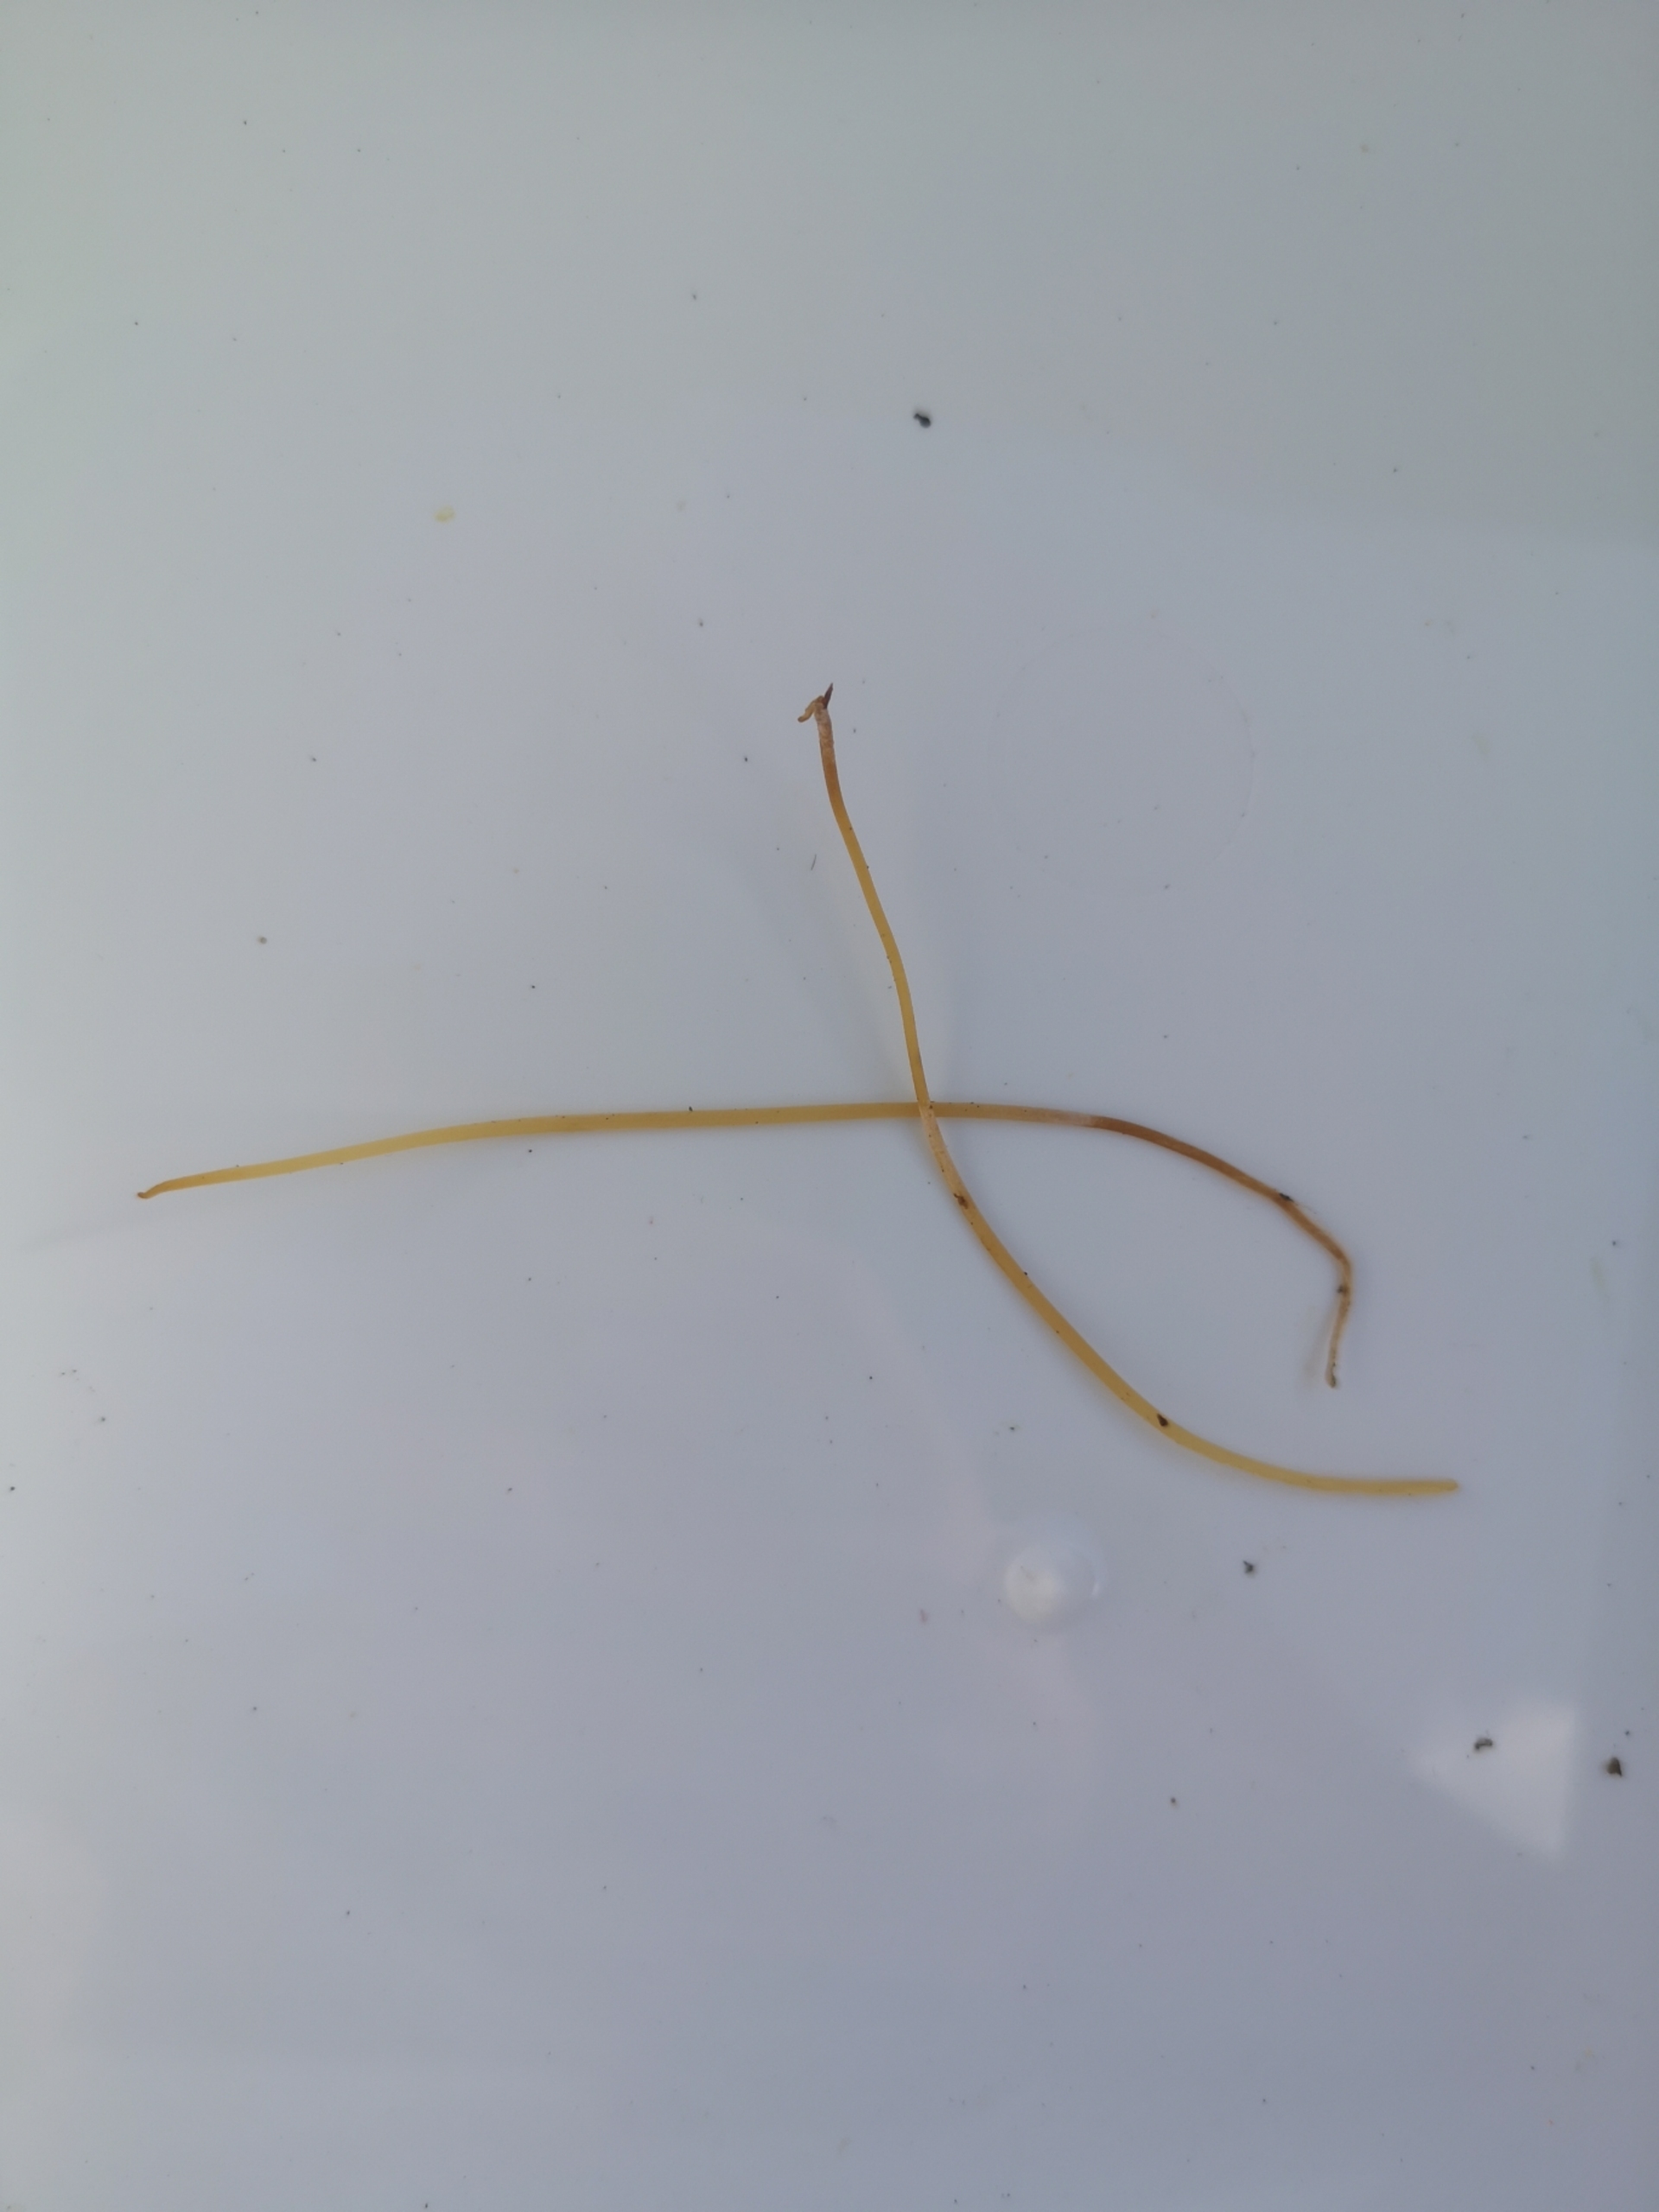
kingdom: Fungi
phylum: Basidiomycota
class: Agaricomycetes
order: Agaricales
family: Typhulaceae
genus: Typhula
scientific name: Typhula juncea
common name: Trådagtig rørkølle
